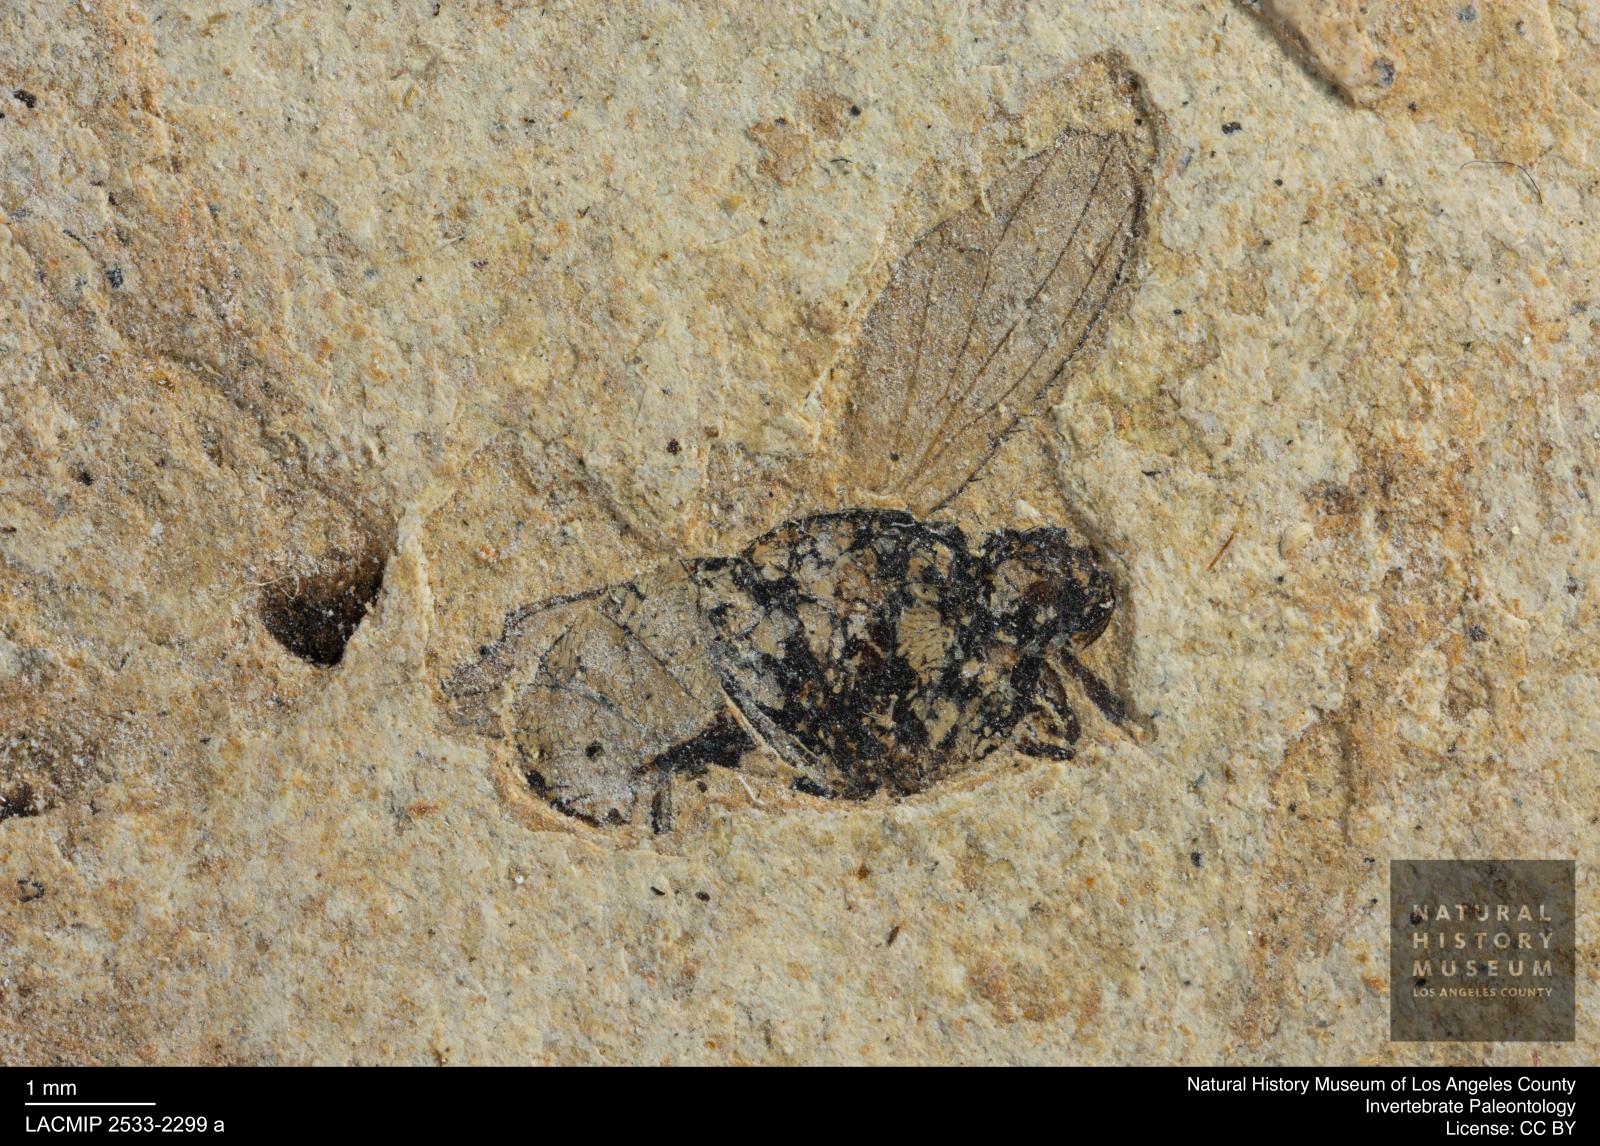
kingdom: Animalia
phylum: Arthropoda
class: Insecta
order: Diptera
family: Heleomyzidae
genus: Heleomyza
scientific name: Heleomyza Leria bauckhorni
